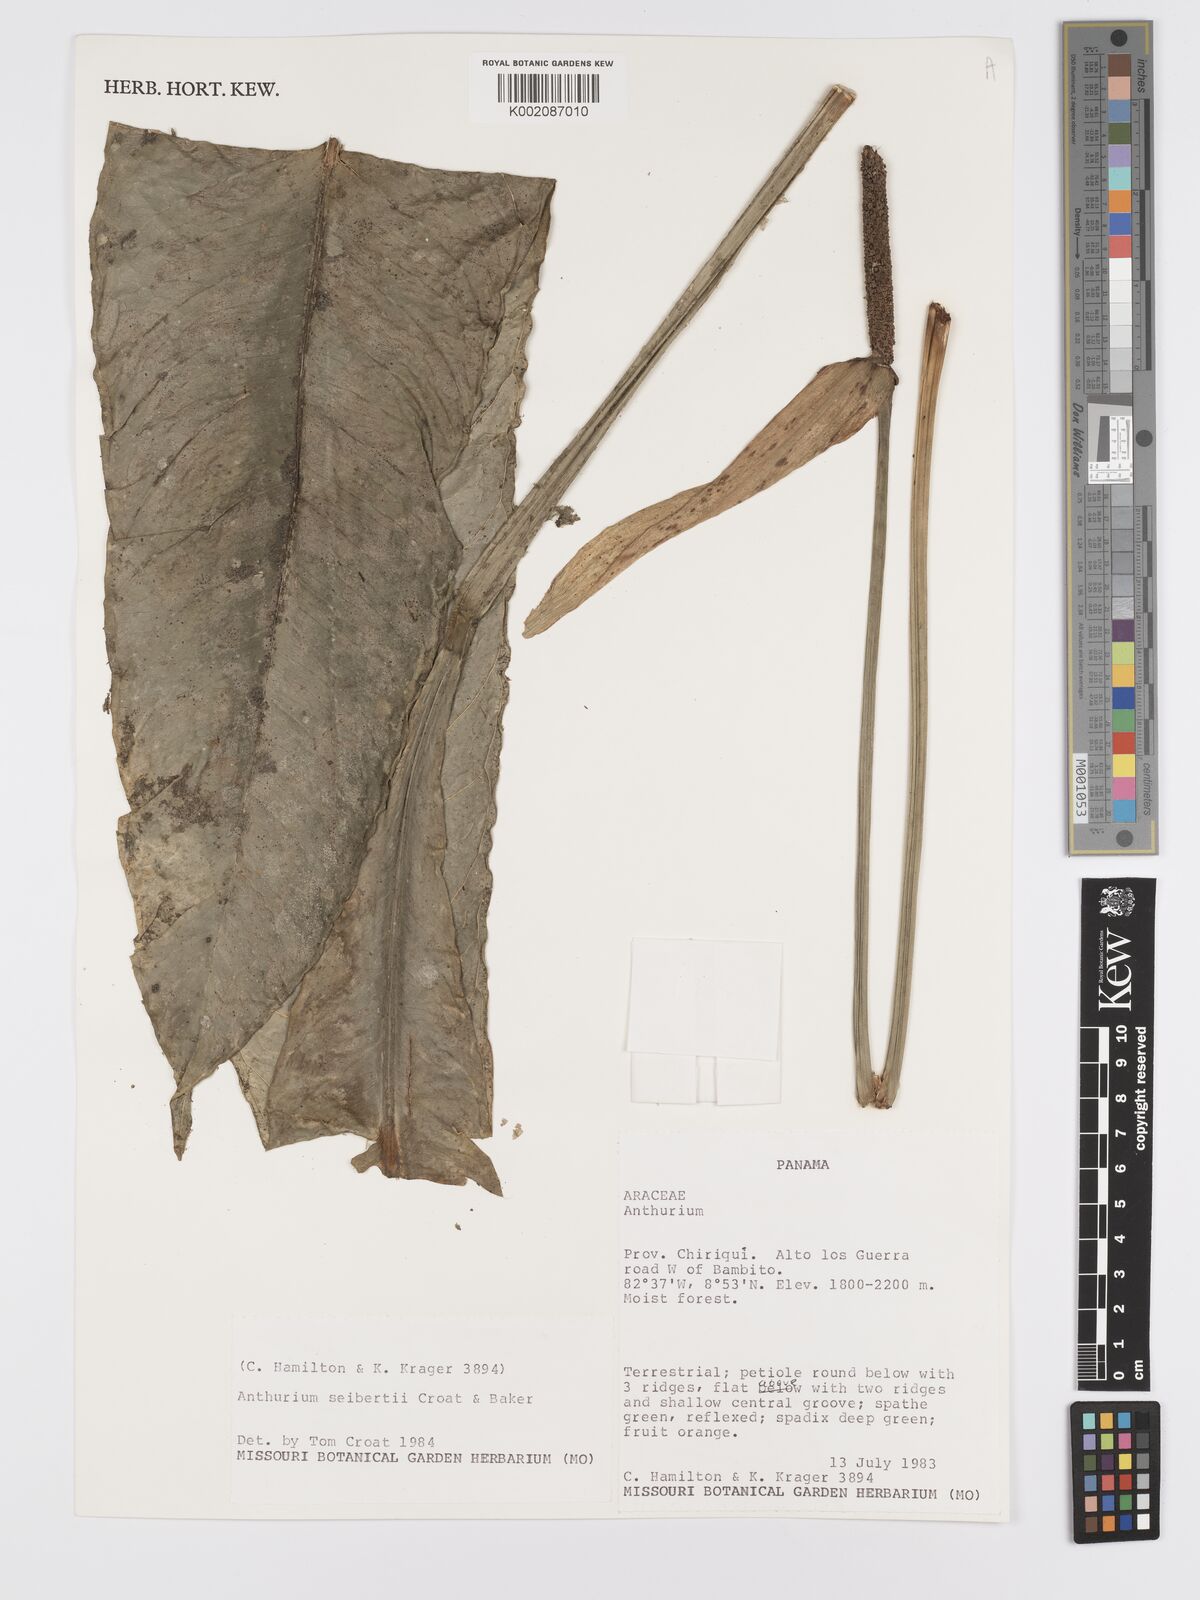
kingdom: Plantae
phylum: Tracheophyta
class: Liliopsida
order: Alismatales
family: Araceae
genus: Anthurium
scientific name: Anthurium seibertii
